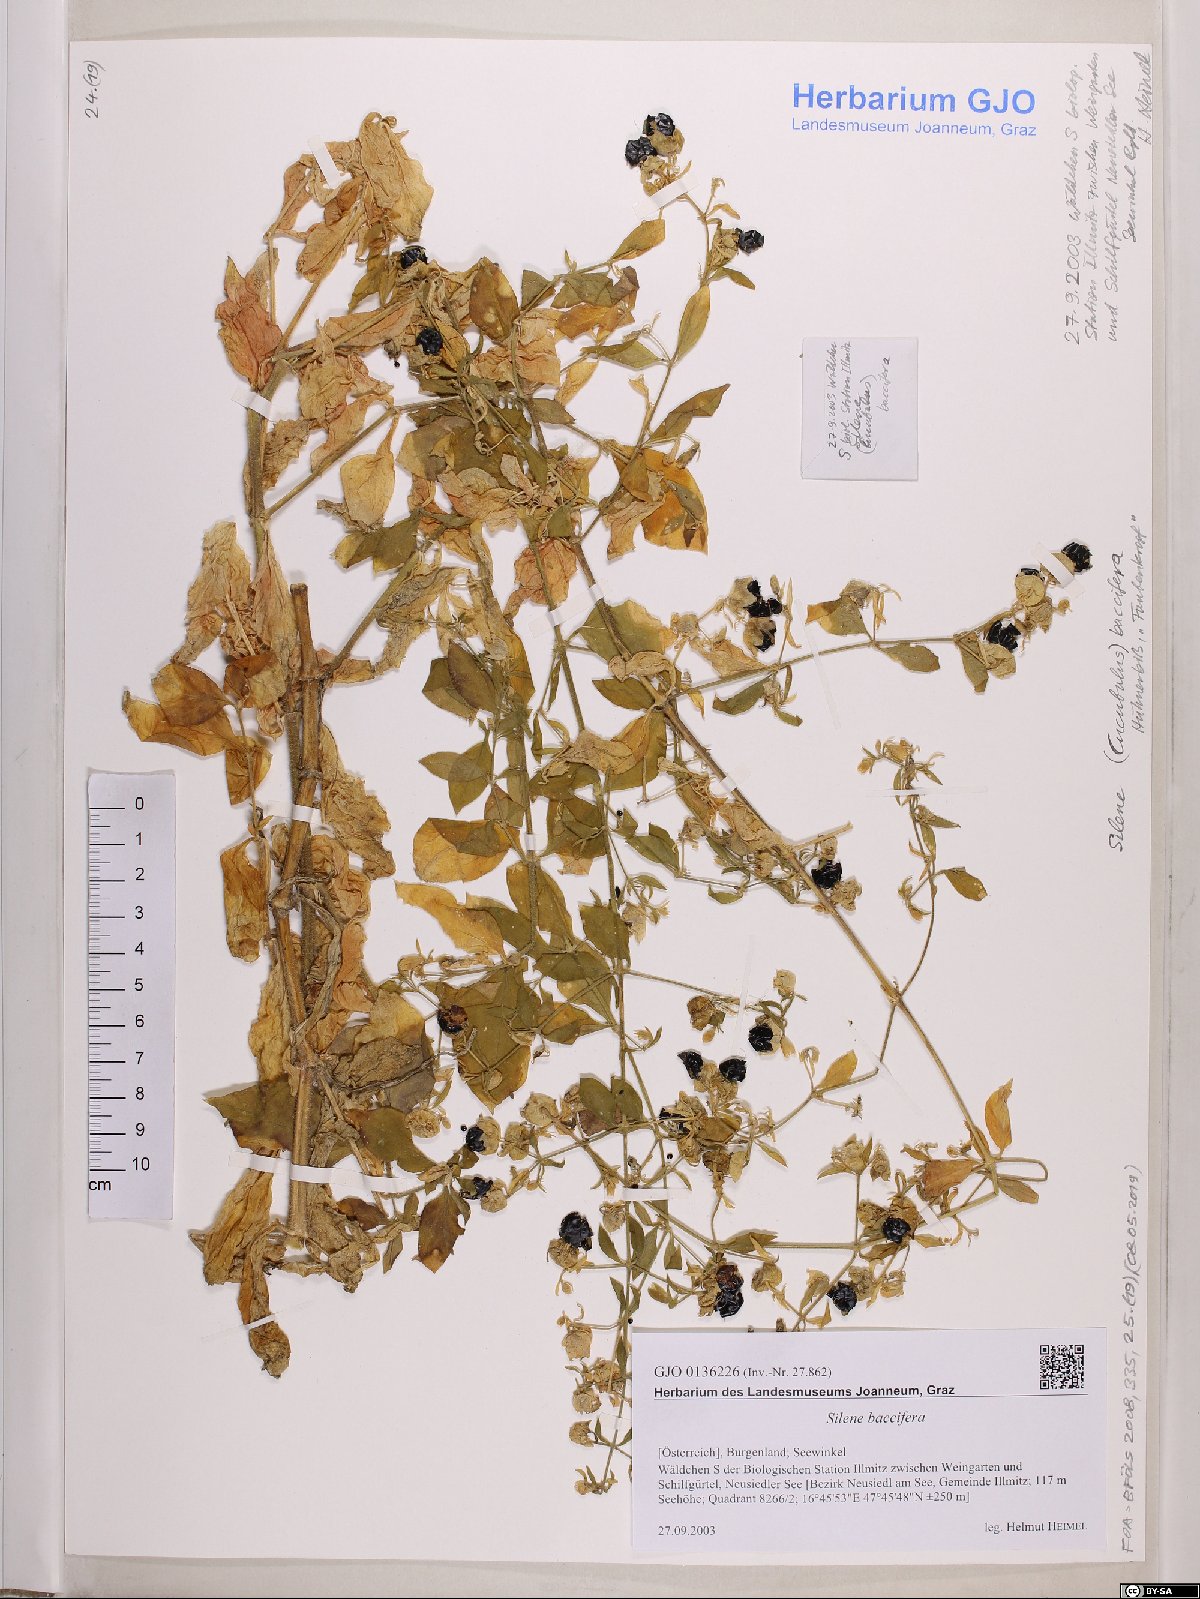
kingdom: Plantae
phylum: Tracheophyta
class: Magnoliopsida
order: Caryophyllales
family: Caryophyllaceae
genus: Silene
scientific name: Silene baccifera
